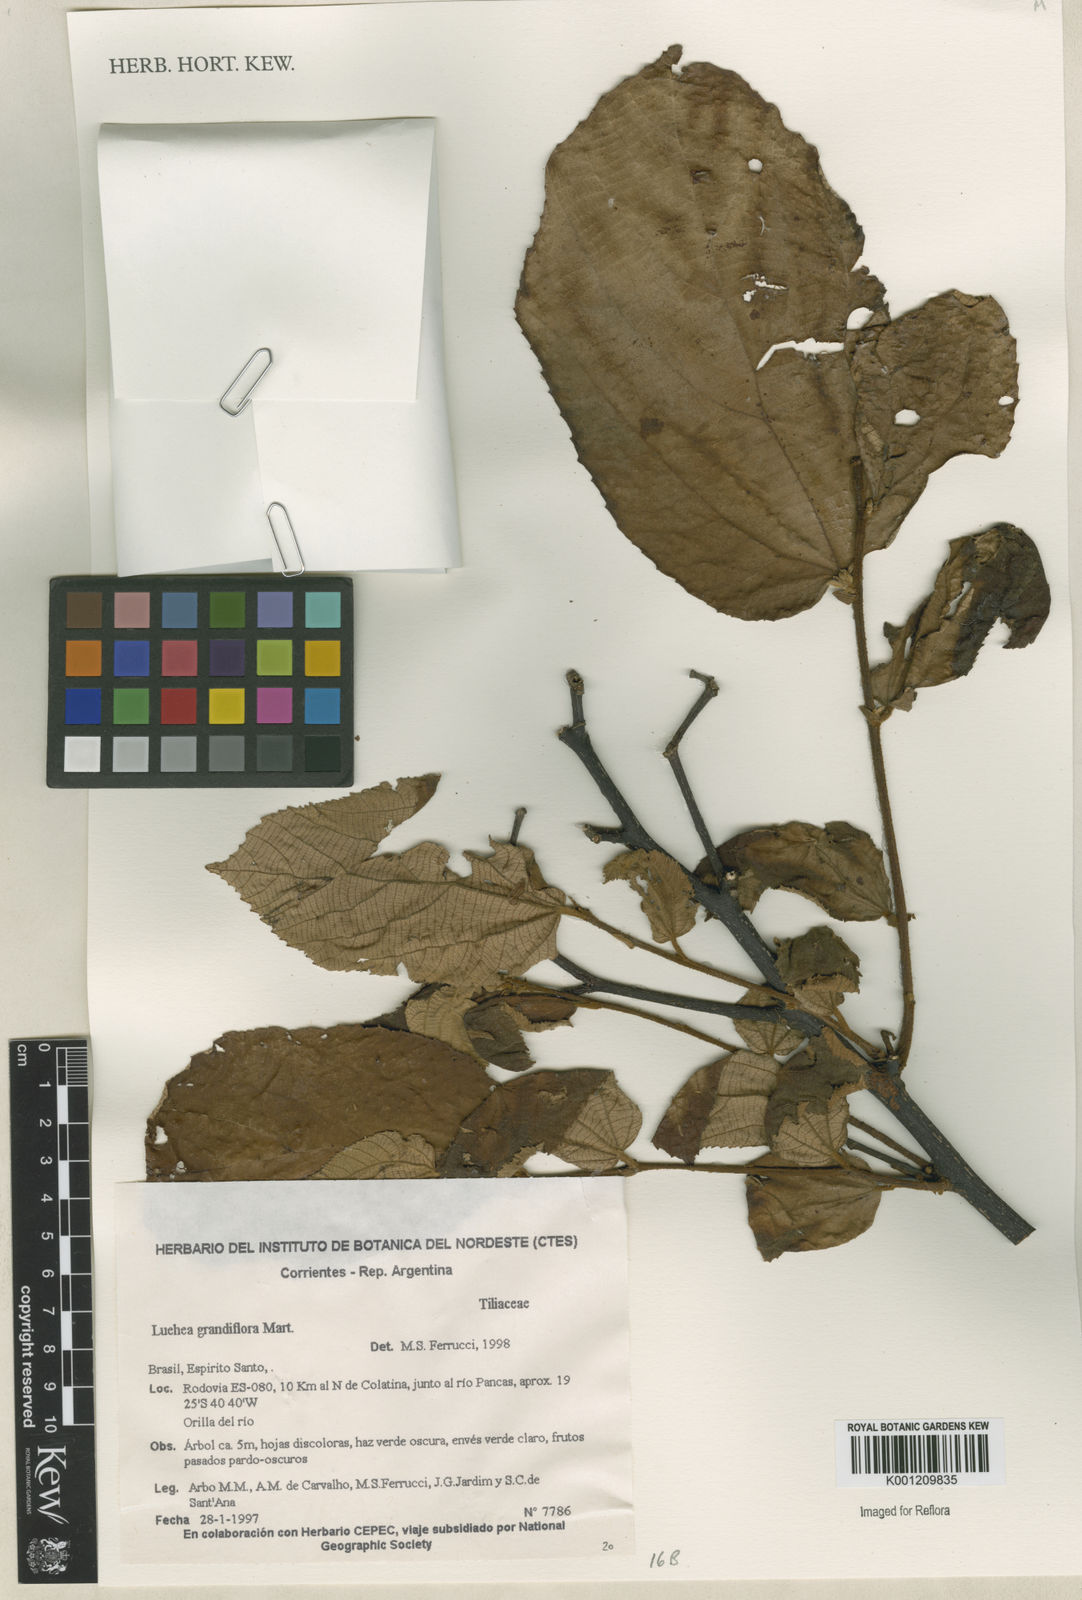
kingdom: Plantae
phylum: Tracheophyta
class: Magnoliopsida
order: Malvales
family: Malvaceae
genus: Luehea
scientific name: Luehea grandiflora
